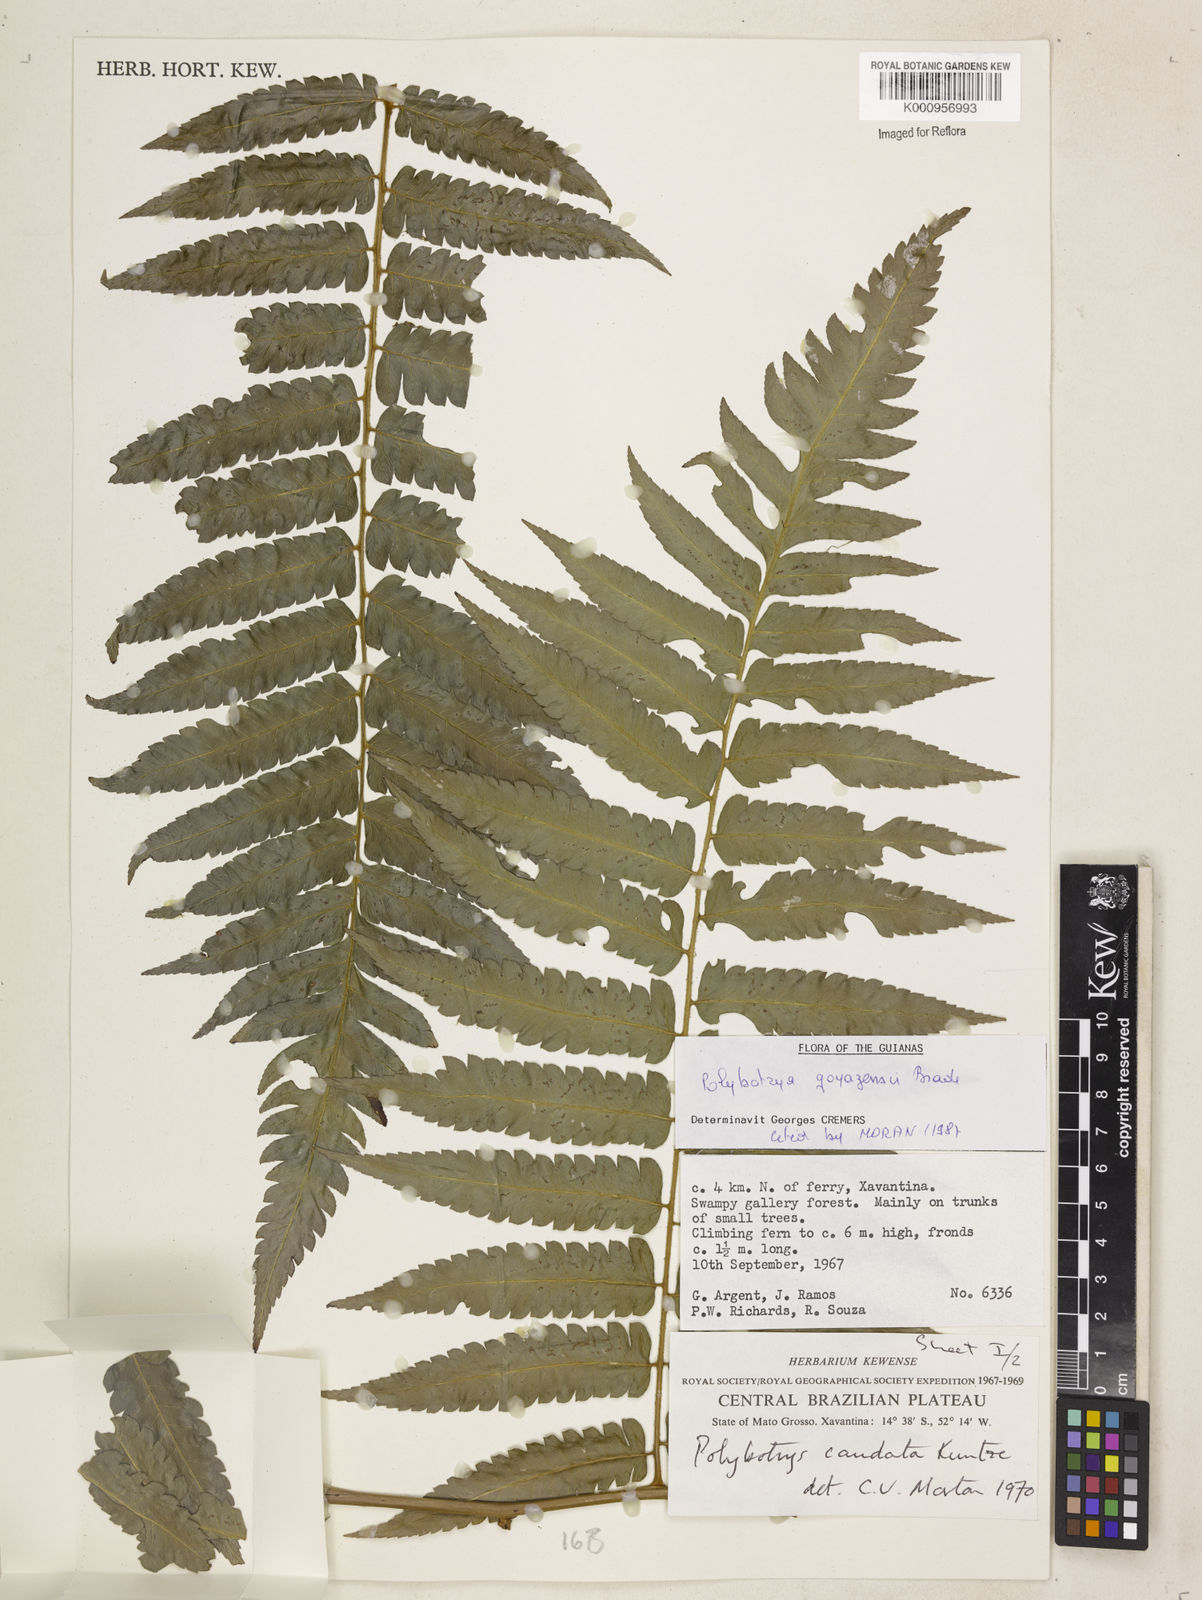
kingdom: Plantae
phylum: Tracheophyta
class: Polypodiopsida
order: Polypodiales
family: Dryopteridaceae
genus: Polybotrya
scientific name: Polybotrya goyazensis
